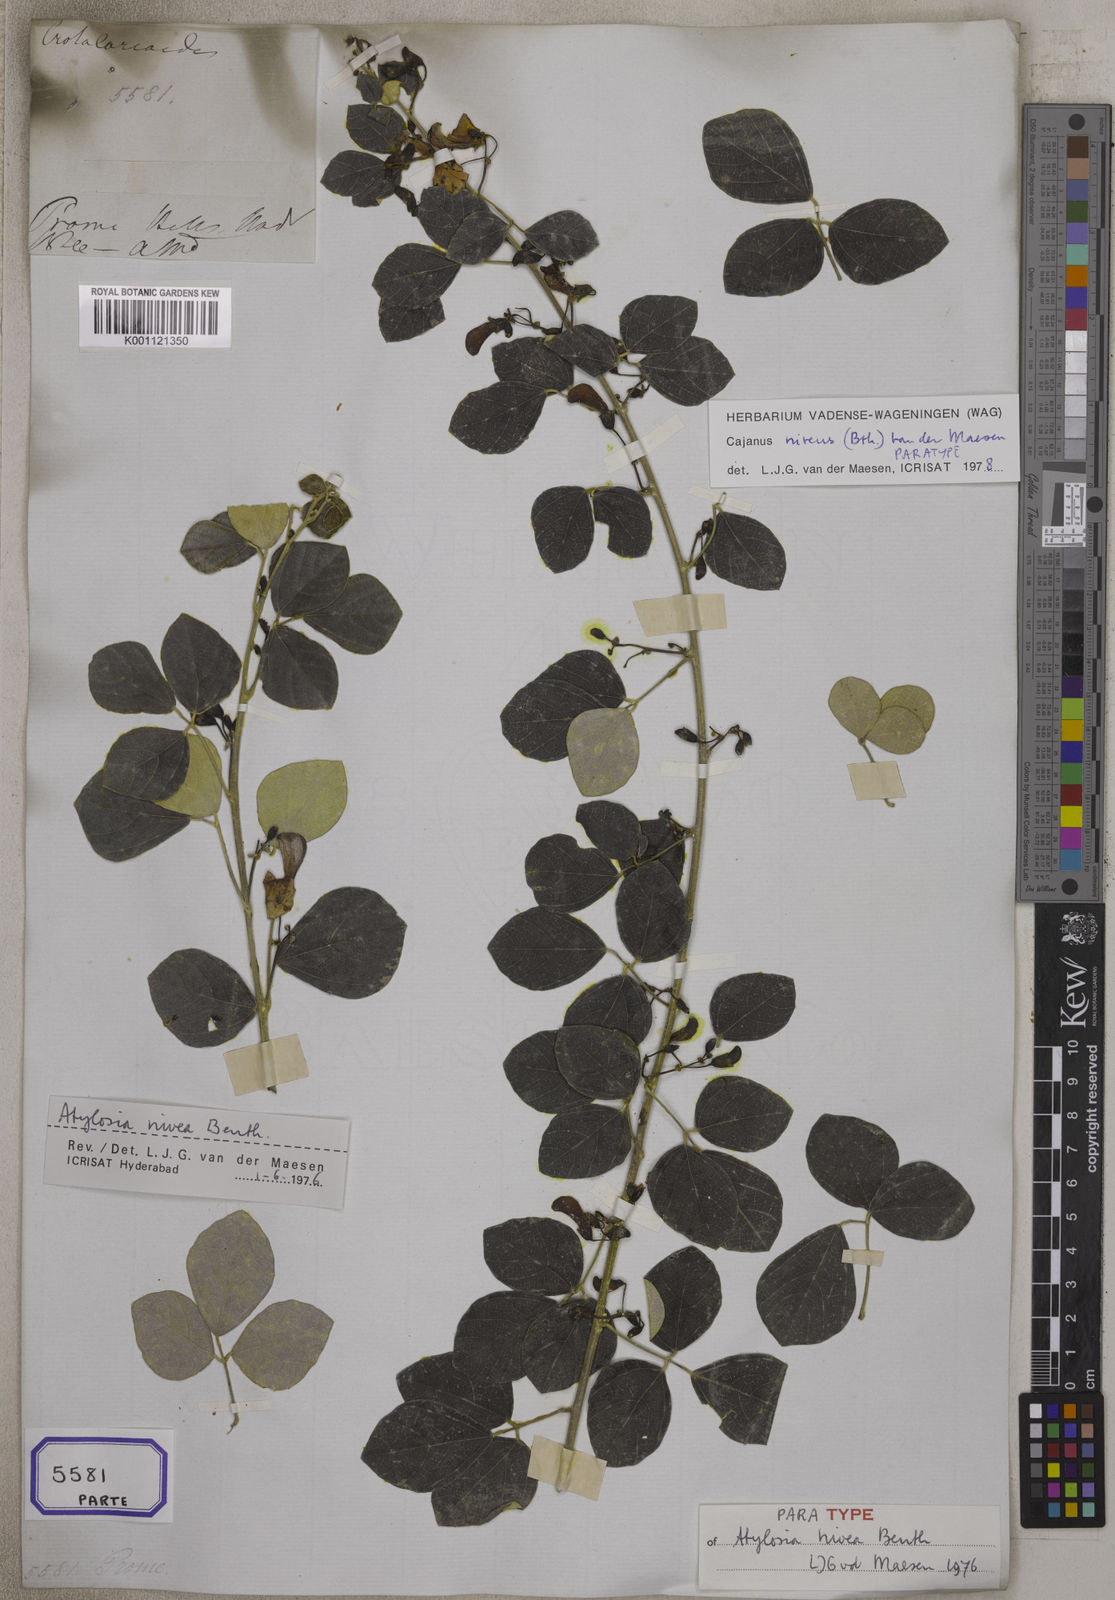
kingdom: Plantae
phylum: Tracheophyta
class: Magnoliopsida
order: Fabales
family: Fabaceae
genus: Cajanus
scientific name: Cajanus
